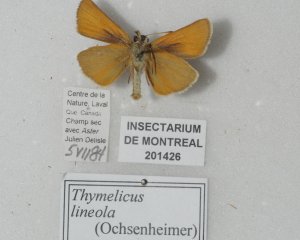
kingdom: Animalia
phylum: Arthropoda
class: Insecta
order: Lepidoptera
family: Hesperiidae
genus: Thymelicus
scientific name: Thymelicus lineola
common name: European Skipper
